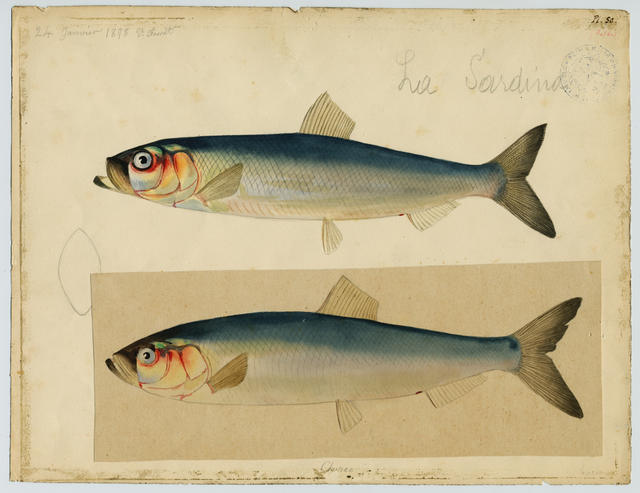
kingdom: Animalia
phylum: Chordata
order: Clupeiformes
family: Clupeidae
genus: Sardina
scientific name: Sardina pilchardus
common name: Pilchard
